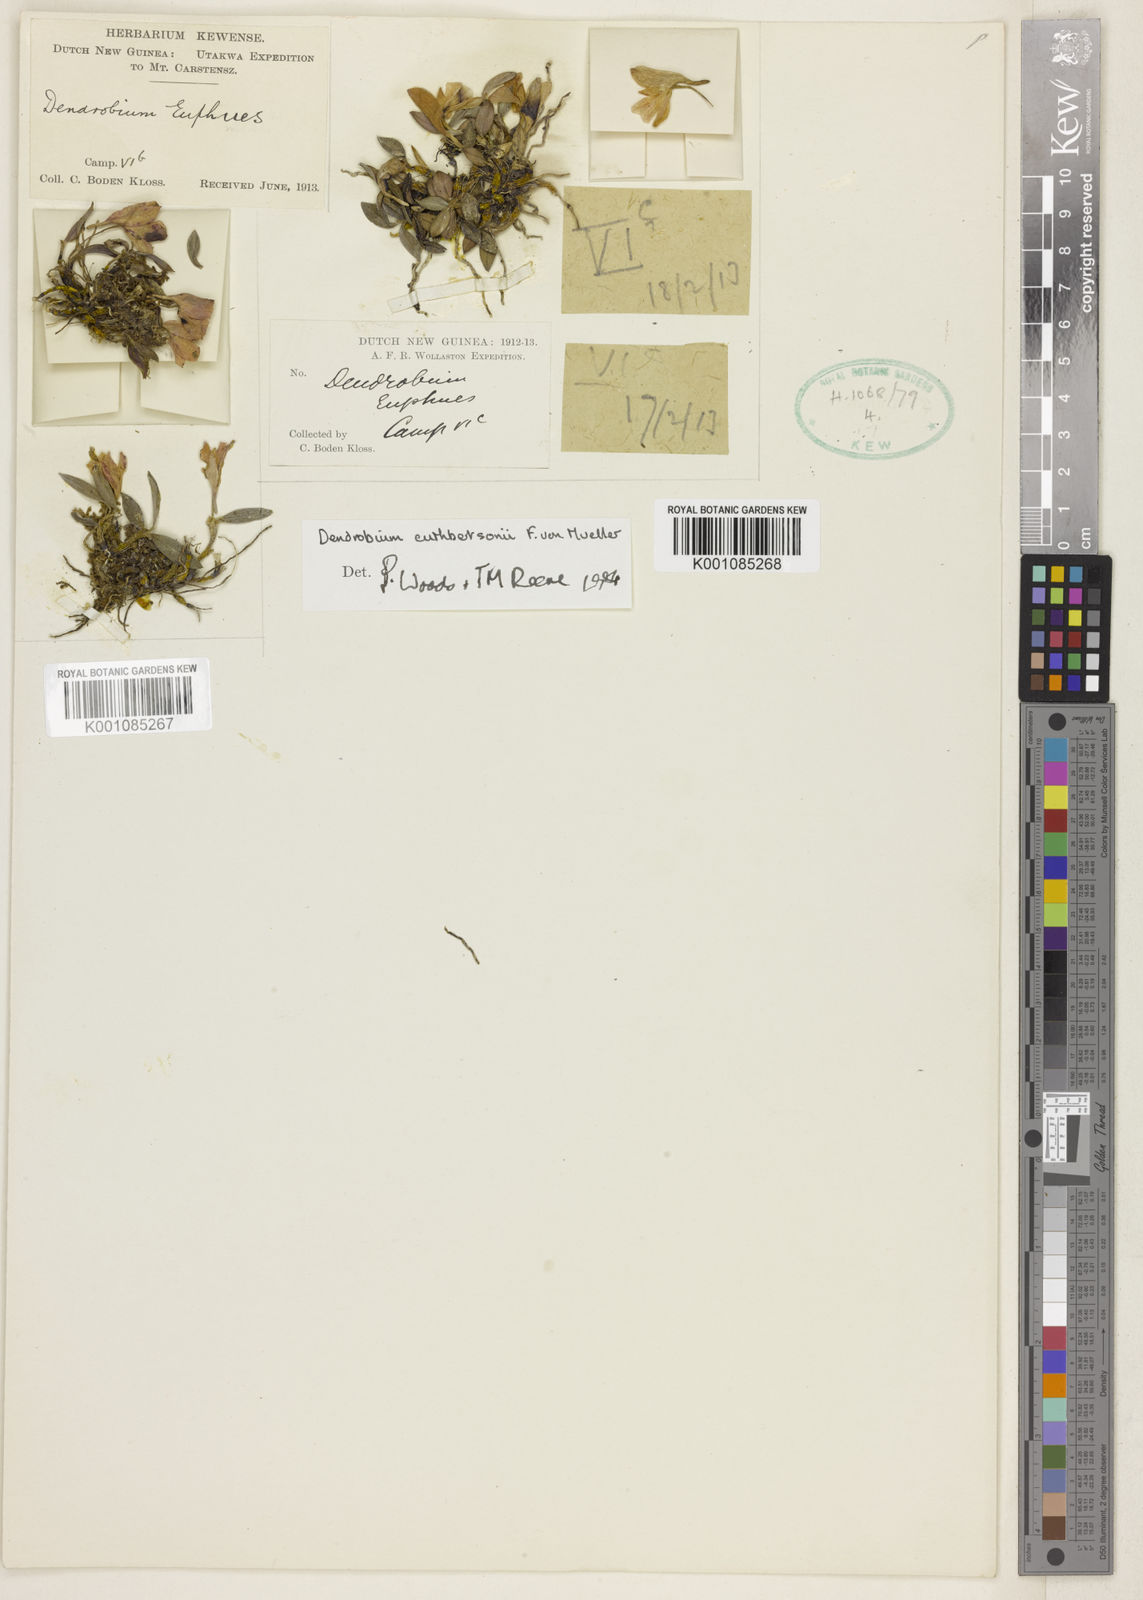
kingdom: Plantae
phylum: Tracheophyta
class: Liliopsida
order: Asparagales
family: Orchidaceae
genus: Dendrobium
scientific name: Dendrobium cuthbertsonii
